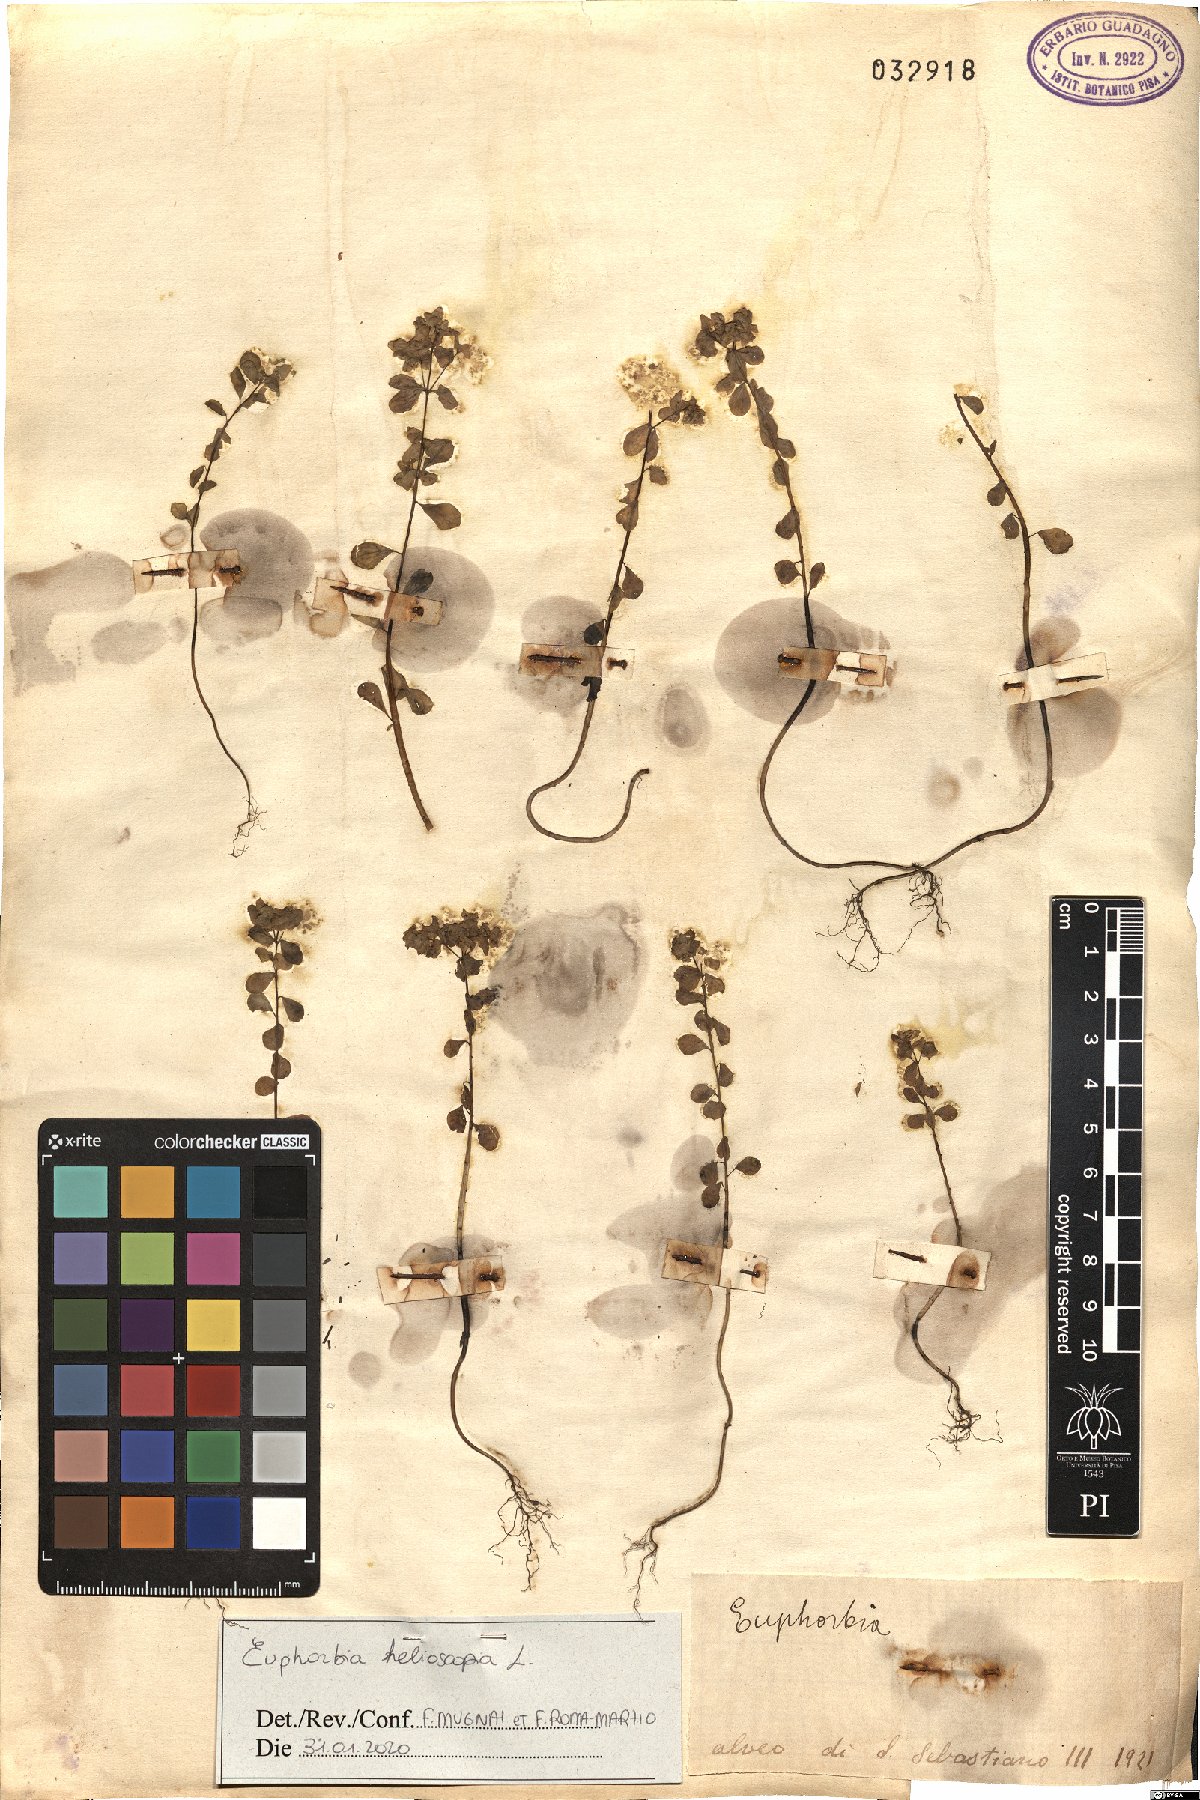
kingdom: Plantae
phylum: Tracheophyta
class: Magnoliopsida
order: Malpighiales
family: Euphorbiaceae
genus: Euphorbia
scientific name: Euphorbia helioscopia
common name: Sun spurge
